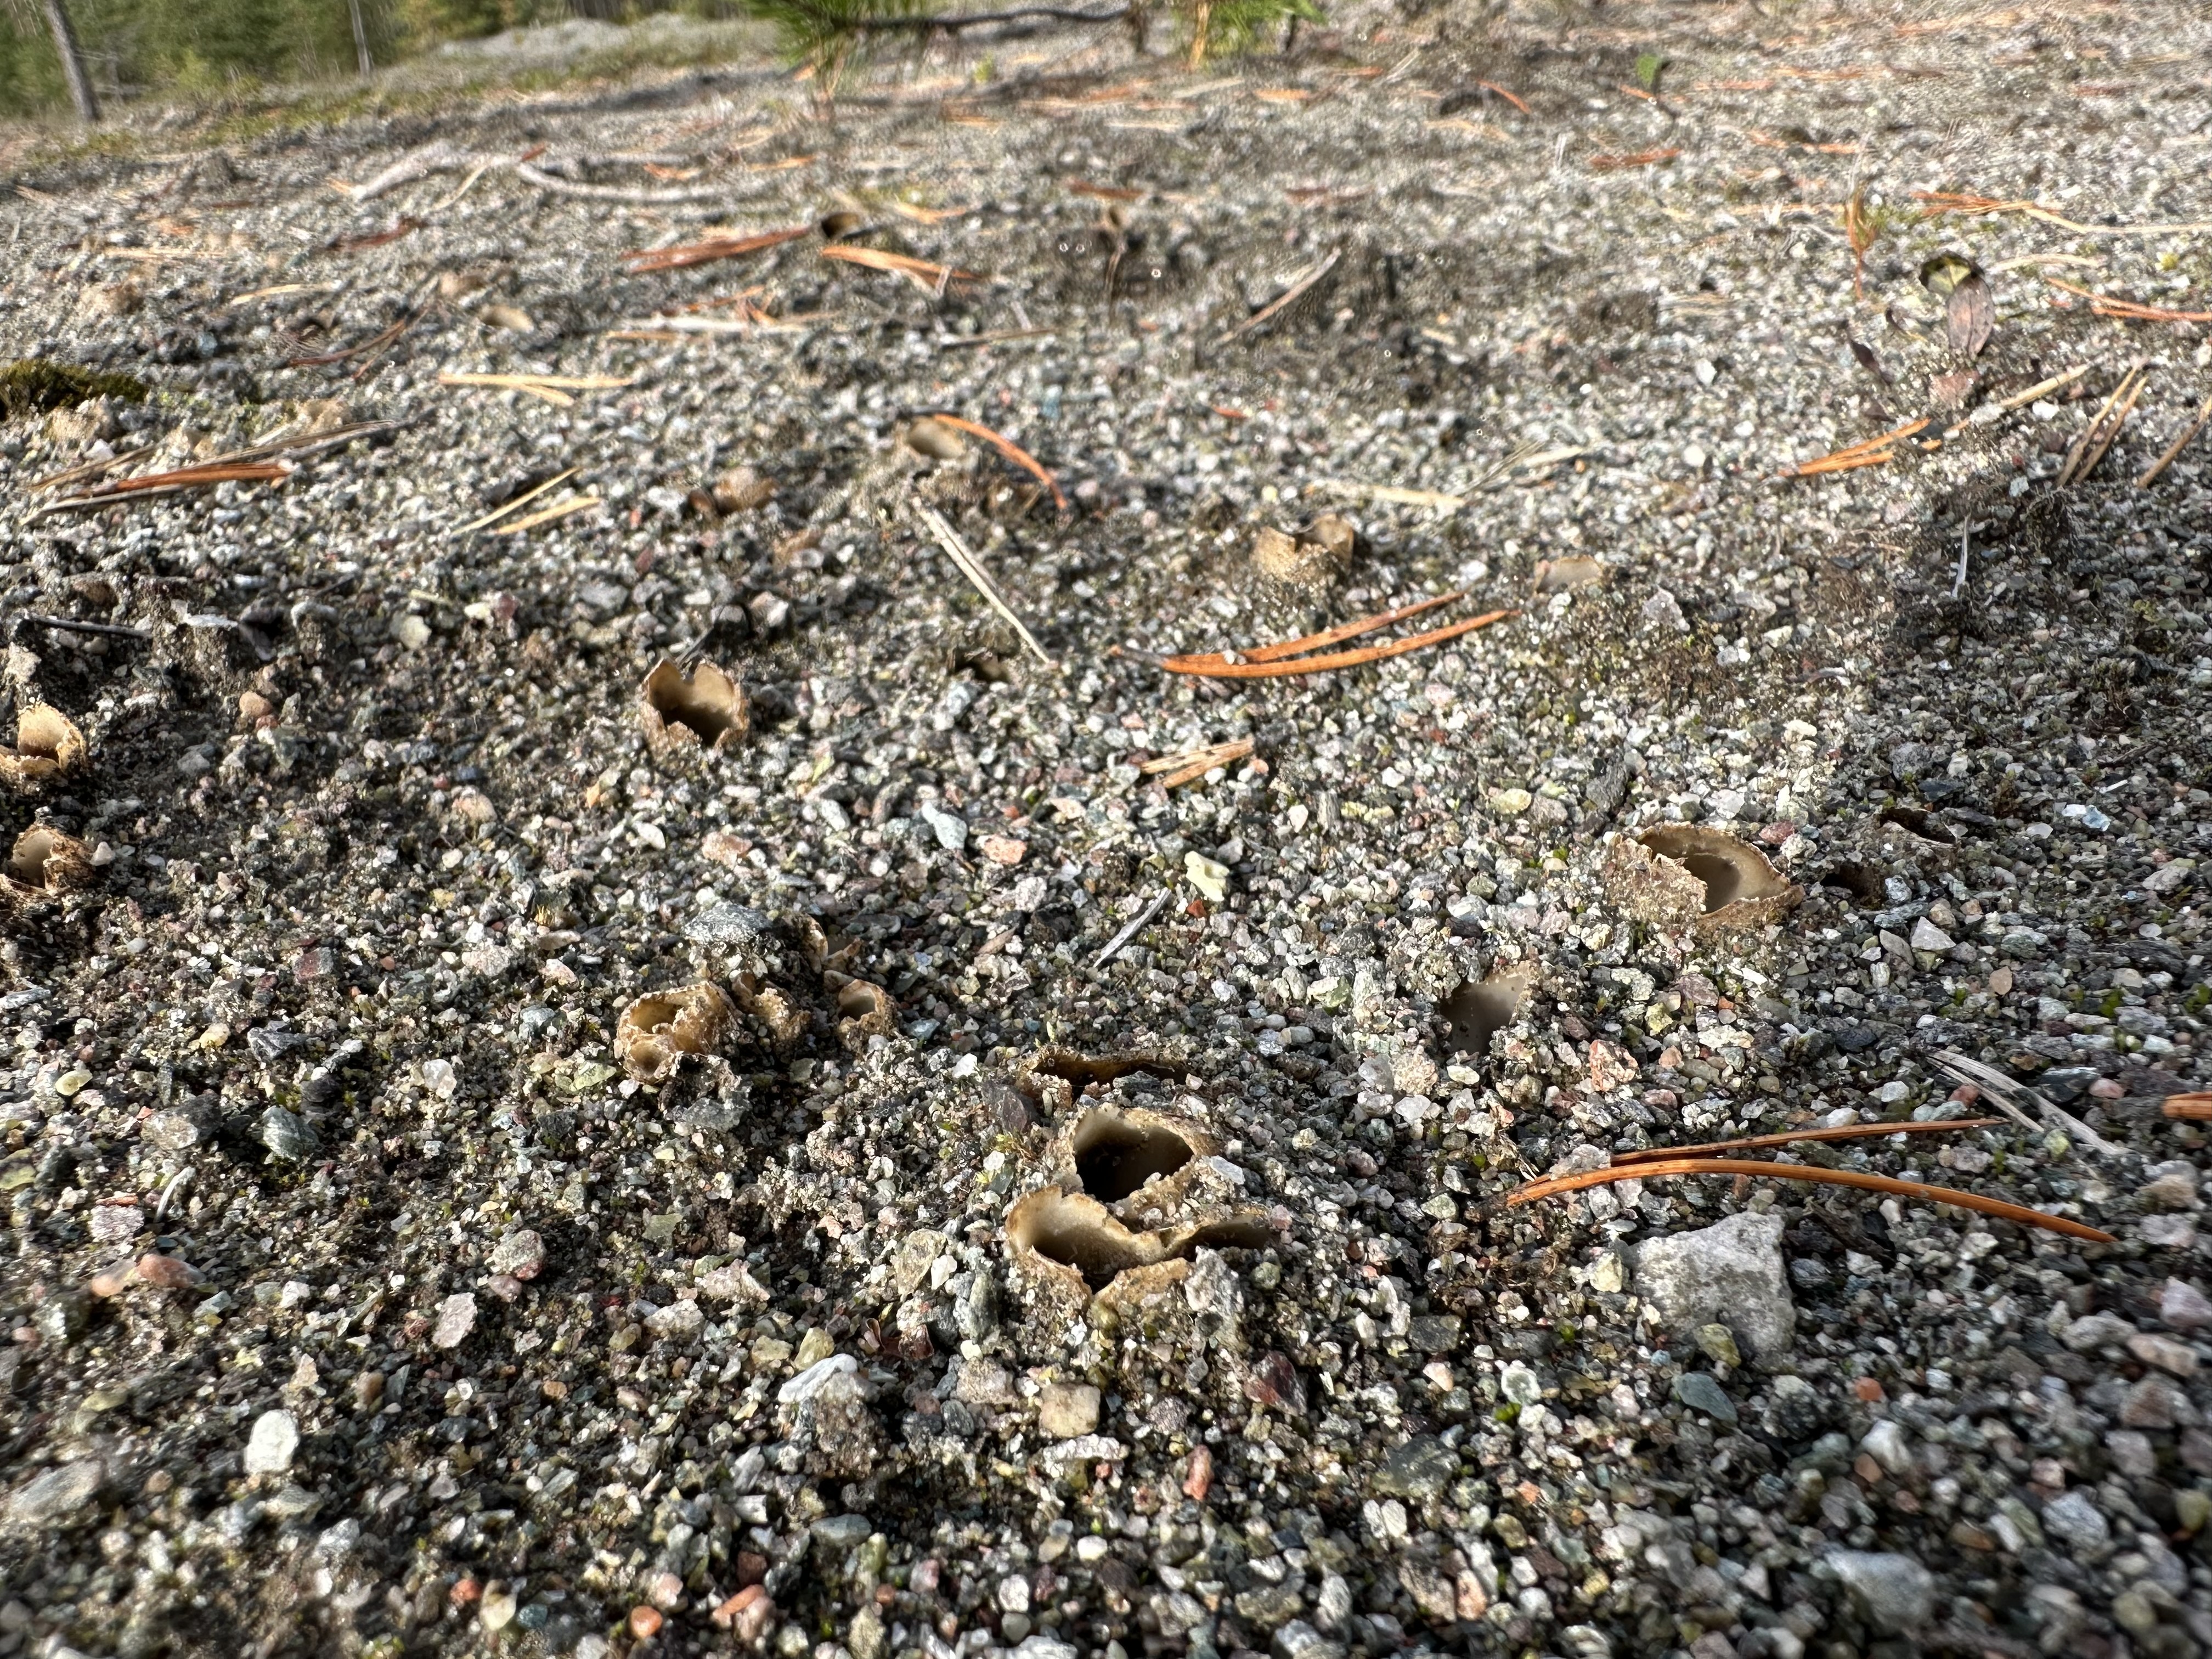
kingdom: Fungi
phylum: Ascomycota
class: Pezizomycetes
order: Pezizales
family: Pyronemataceae
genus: Geopora
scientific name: Geopora arenicola
